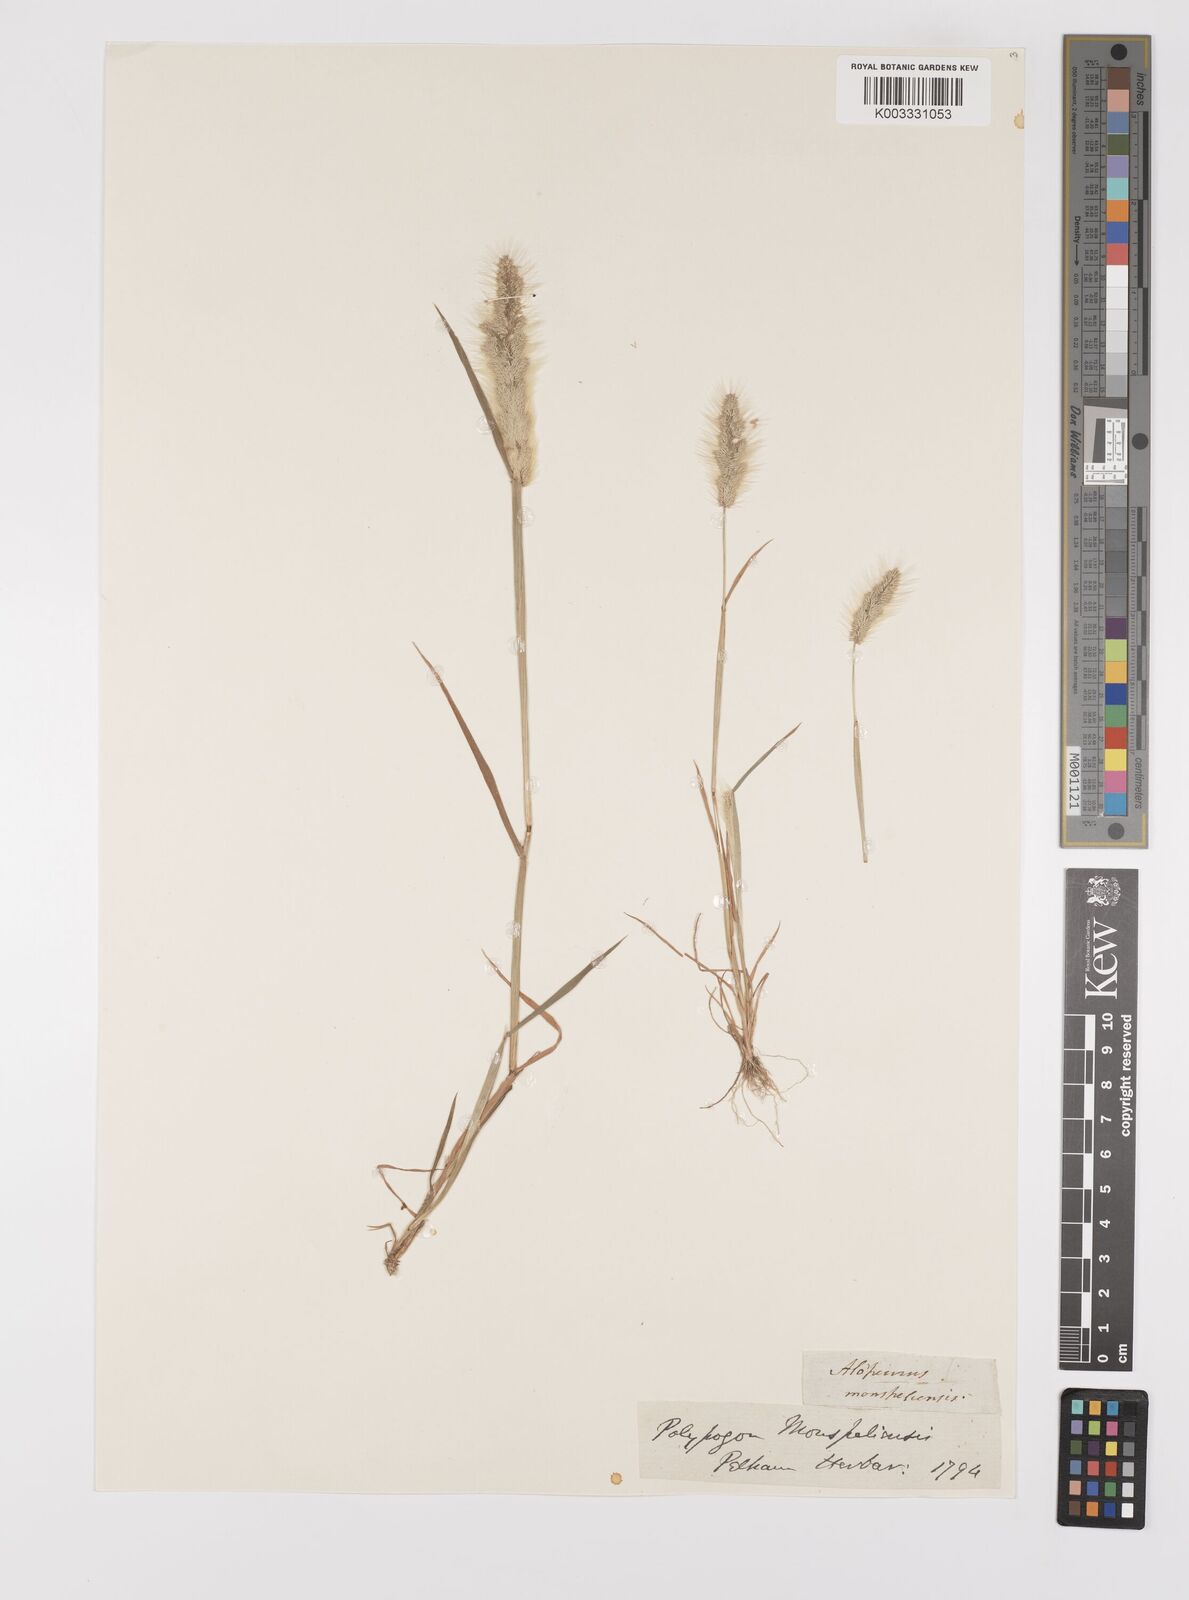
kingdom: Plantae
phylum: Tracheophyta
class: Liliopsida
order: Poales
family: Poaceae
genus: Polypogon
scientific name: Polypogon monspeliensis
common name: Annual rabbitsfoot grass
